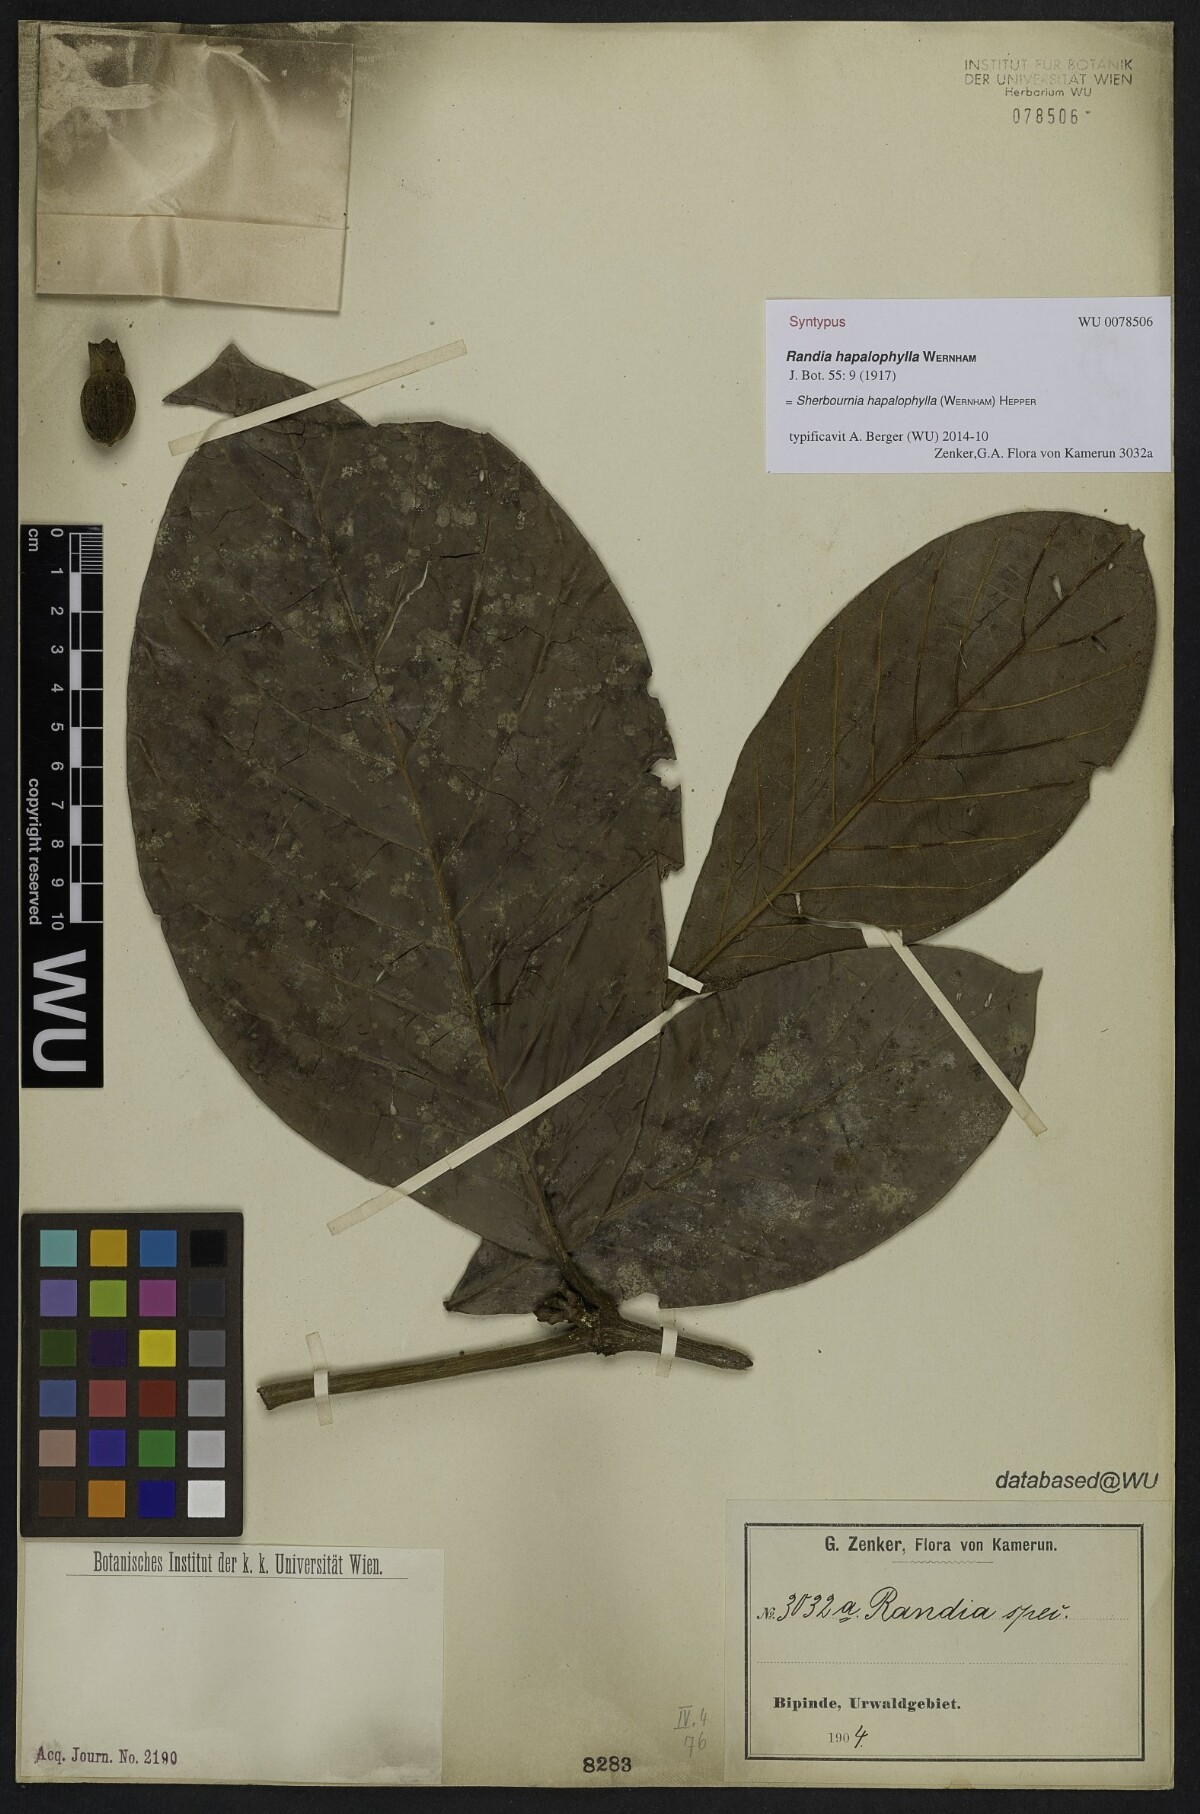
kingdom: Plantae
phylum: Tracheophyta
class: Magnoliopsida
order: Gentianales
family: Rubiaceae
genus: Sherbournia
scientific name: Sherbournia hapalophylla
